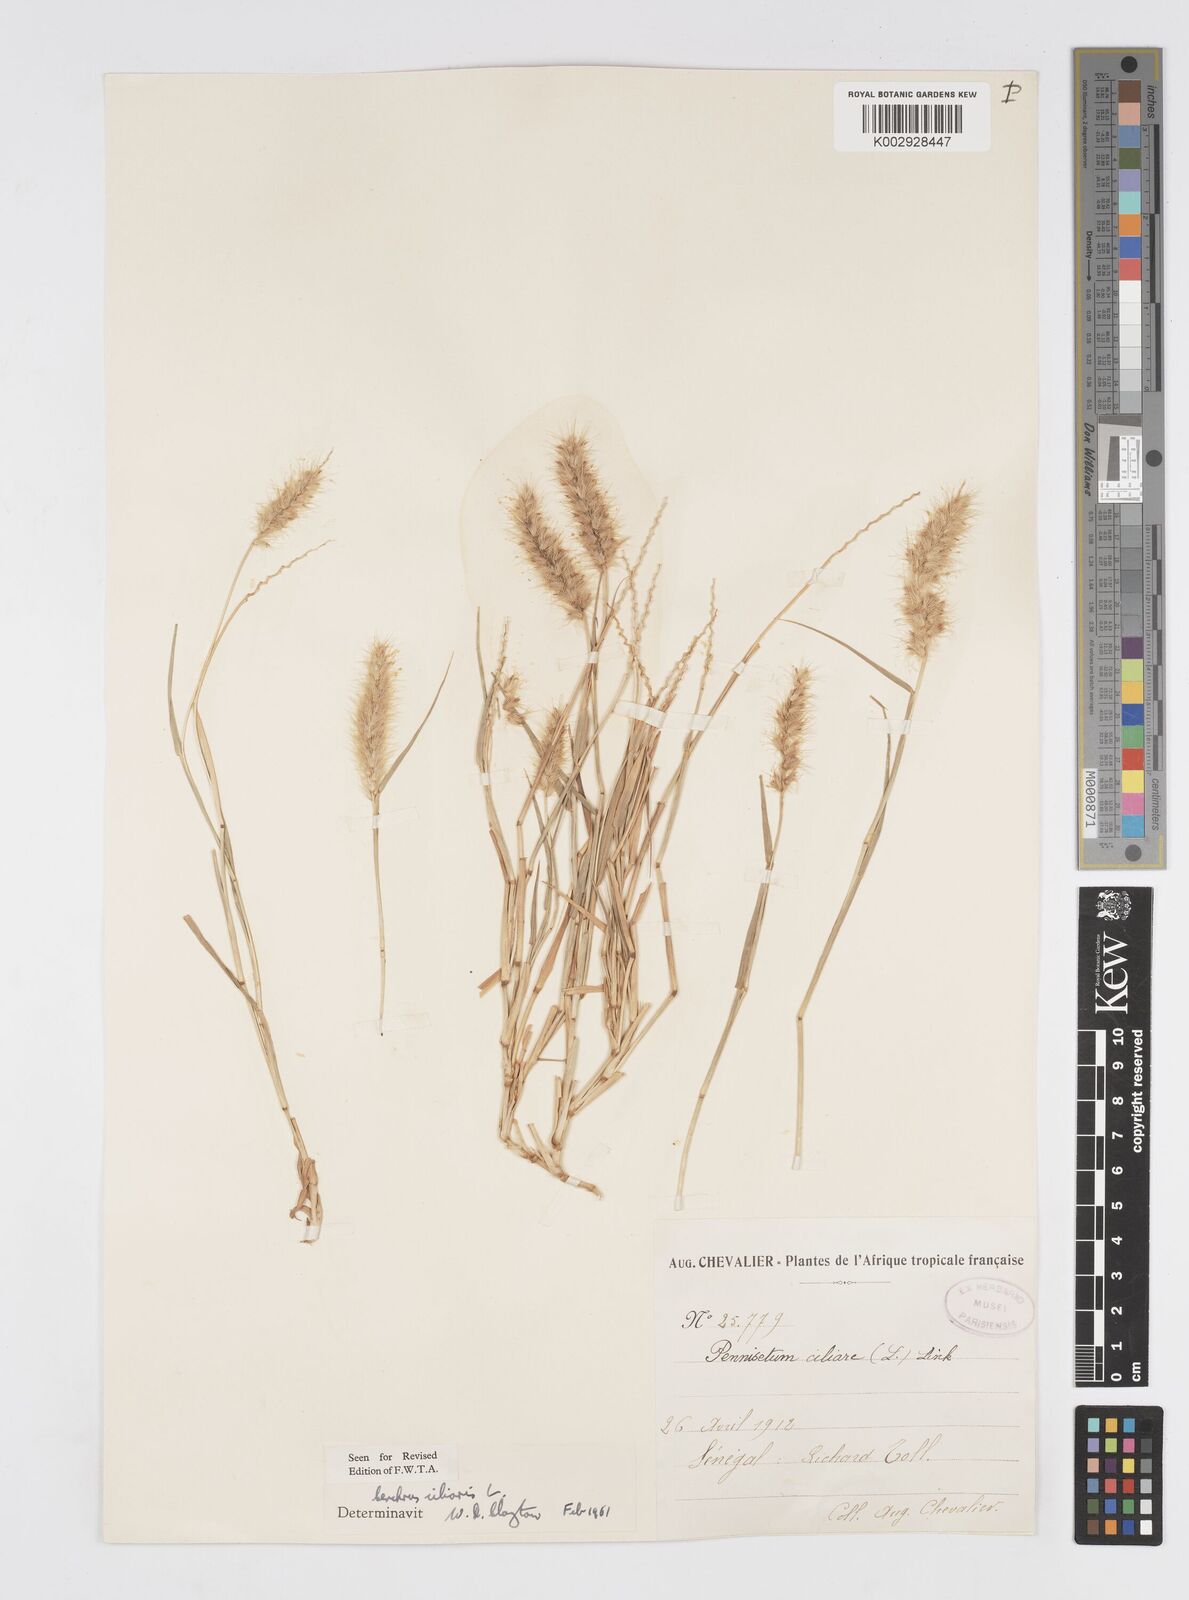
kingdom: Plantae
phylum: Tracheophyta
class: Liliopsida
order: Poales
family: Poaceae
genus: Cenchrus
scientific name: Cenchrus ciliaris
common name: Buffelgrass
